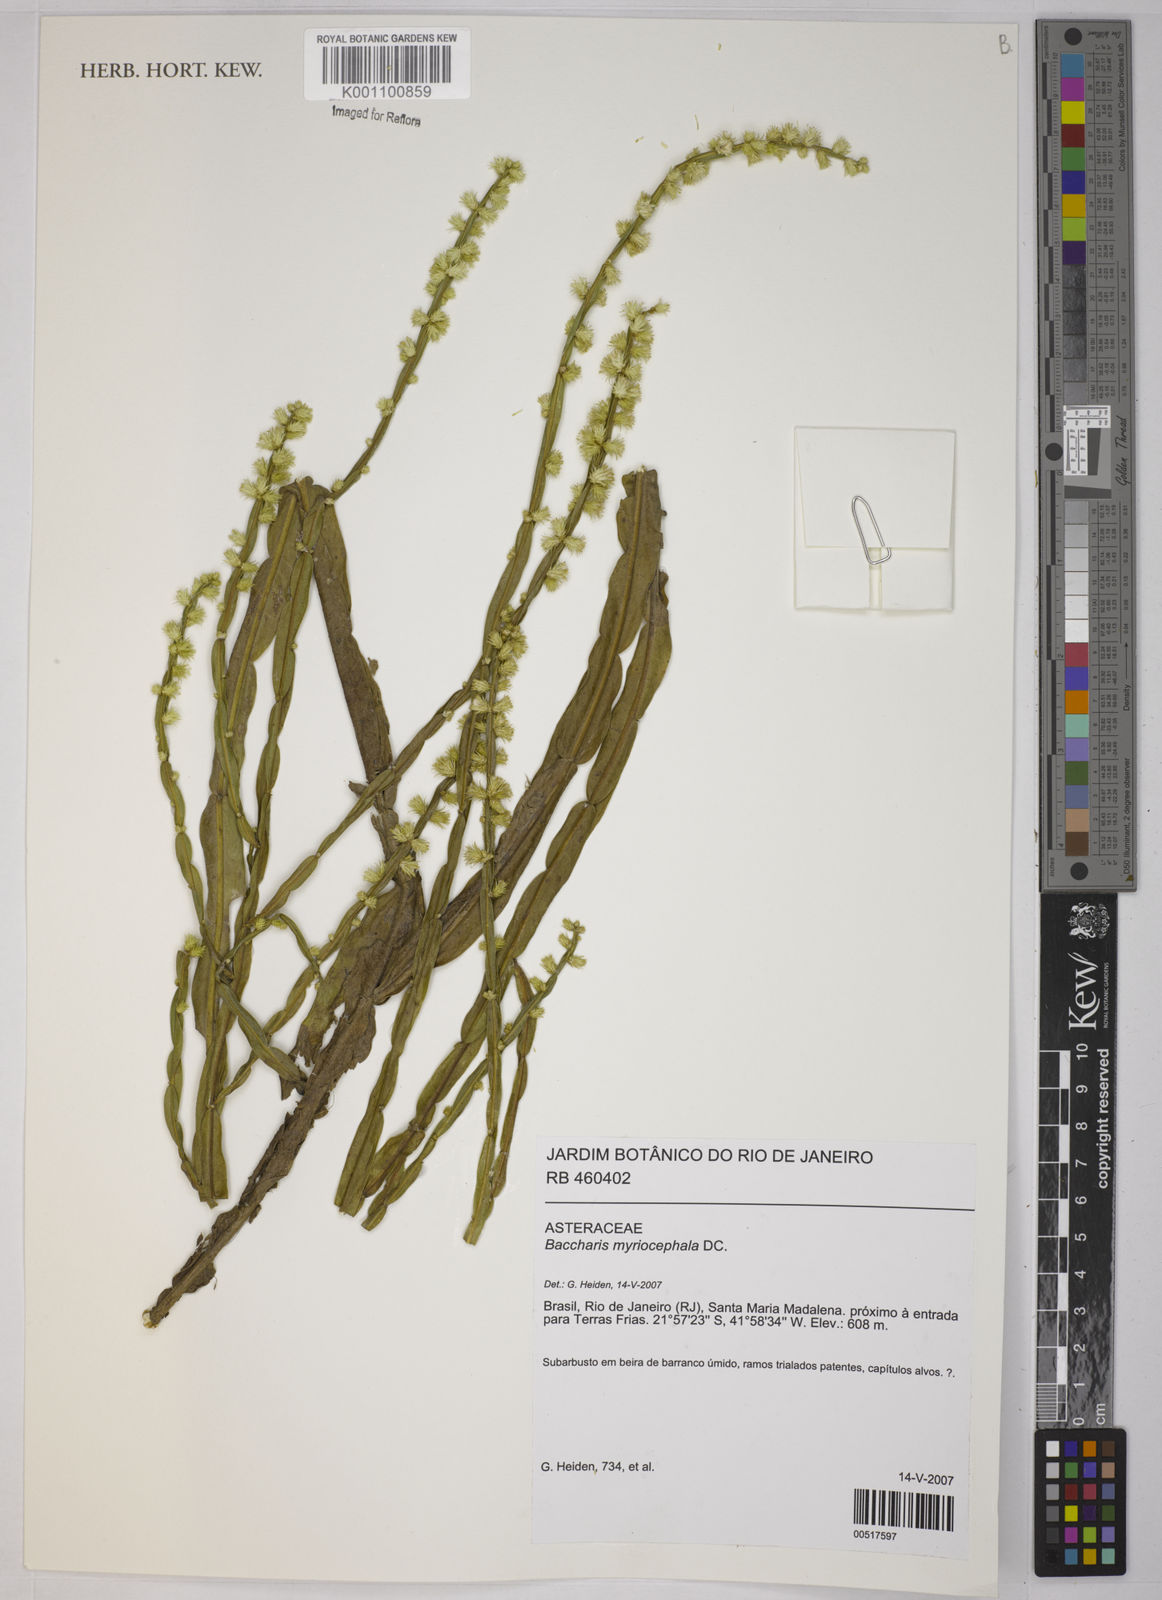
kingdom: Plantae
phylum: Tracheophyta
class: Magnoliopsida
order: Asterales
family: Asteraceae
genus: Baccharis
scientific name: Baccharis myriocephala
